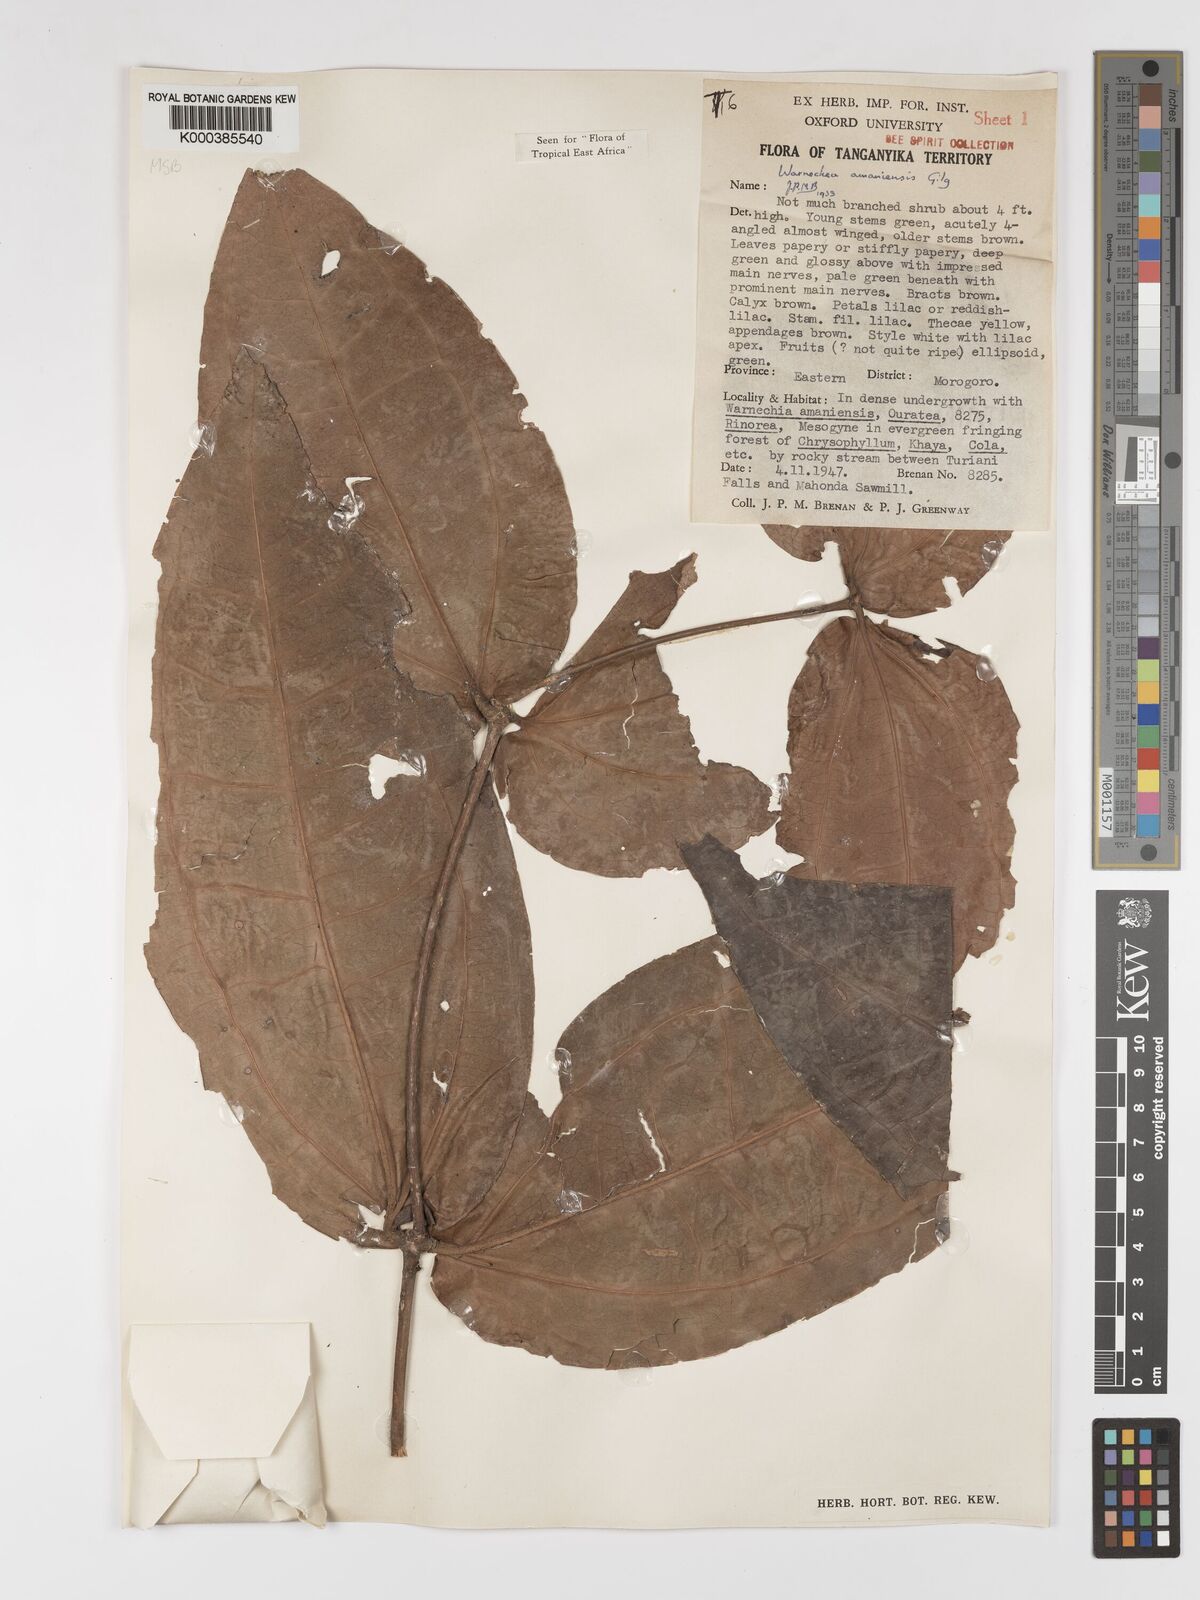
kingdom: Plantae
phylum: Tracheophyta
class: Magnoliopsida
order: Myrtales
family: Melastomataceae
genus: Warneckea
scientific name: Warneckea amaniensis
